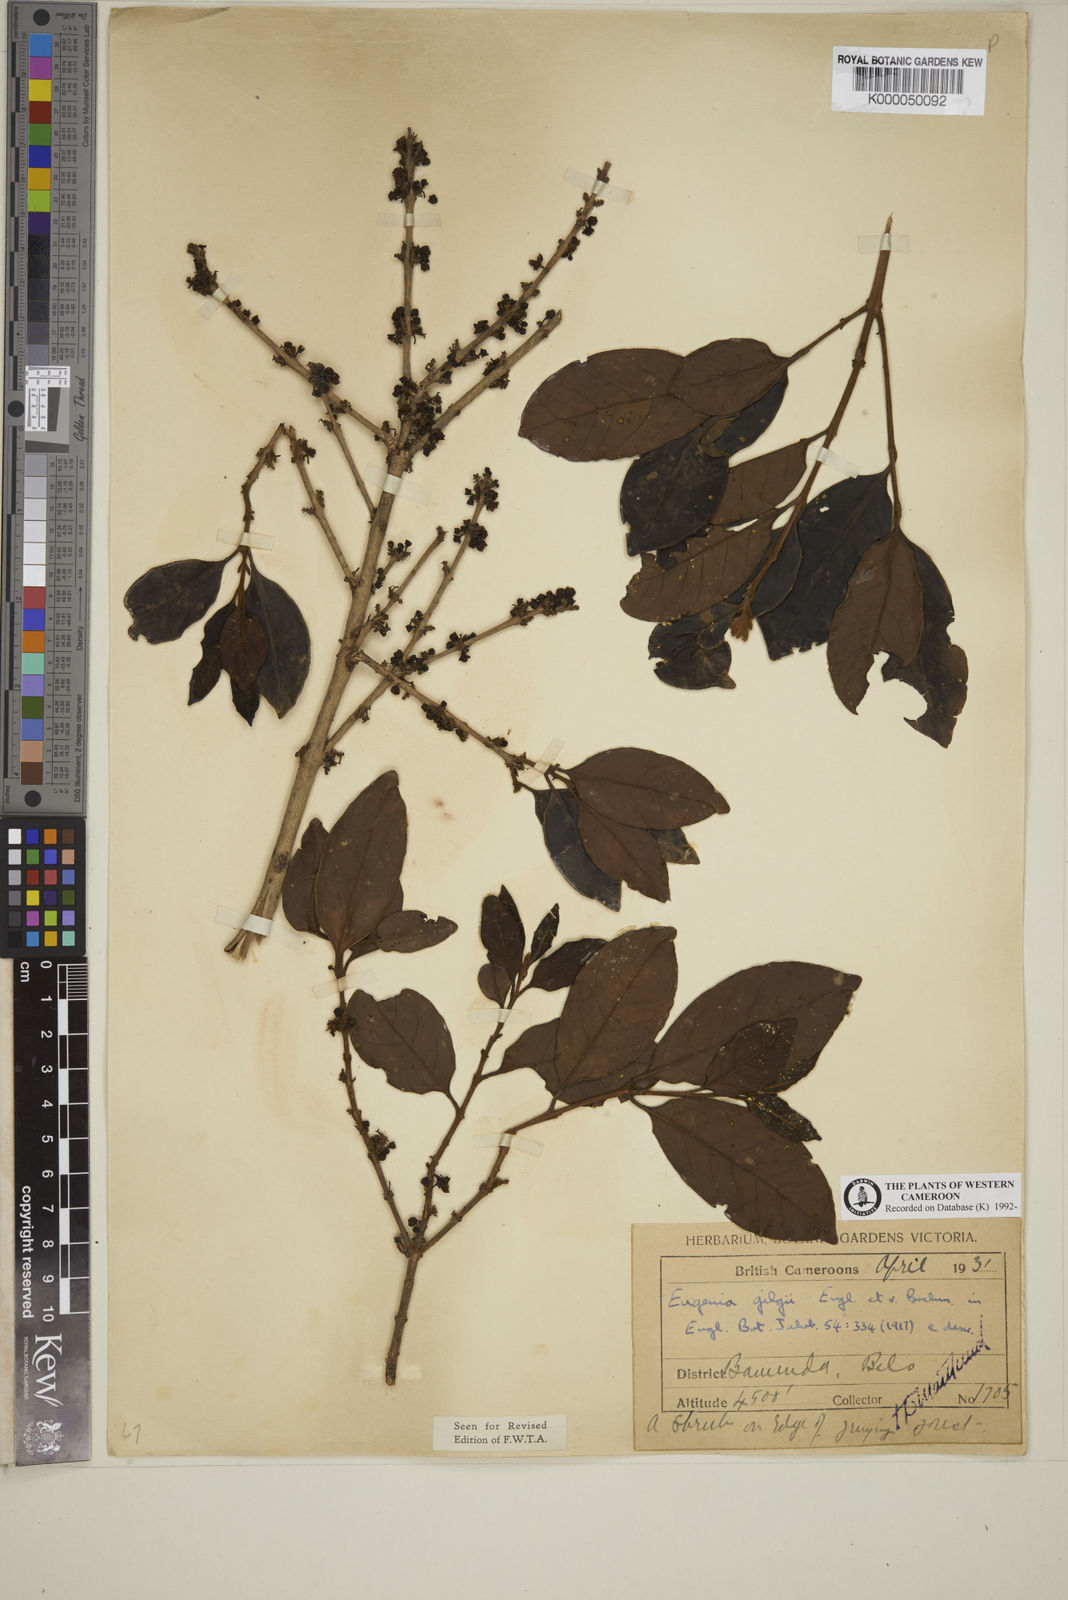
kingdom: Plantae
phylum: Tracheophyta
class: Magnoliopsida
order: Myrtales
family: Myrtaceae
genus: Eugenia
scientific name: Eugenia gilgii
